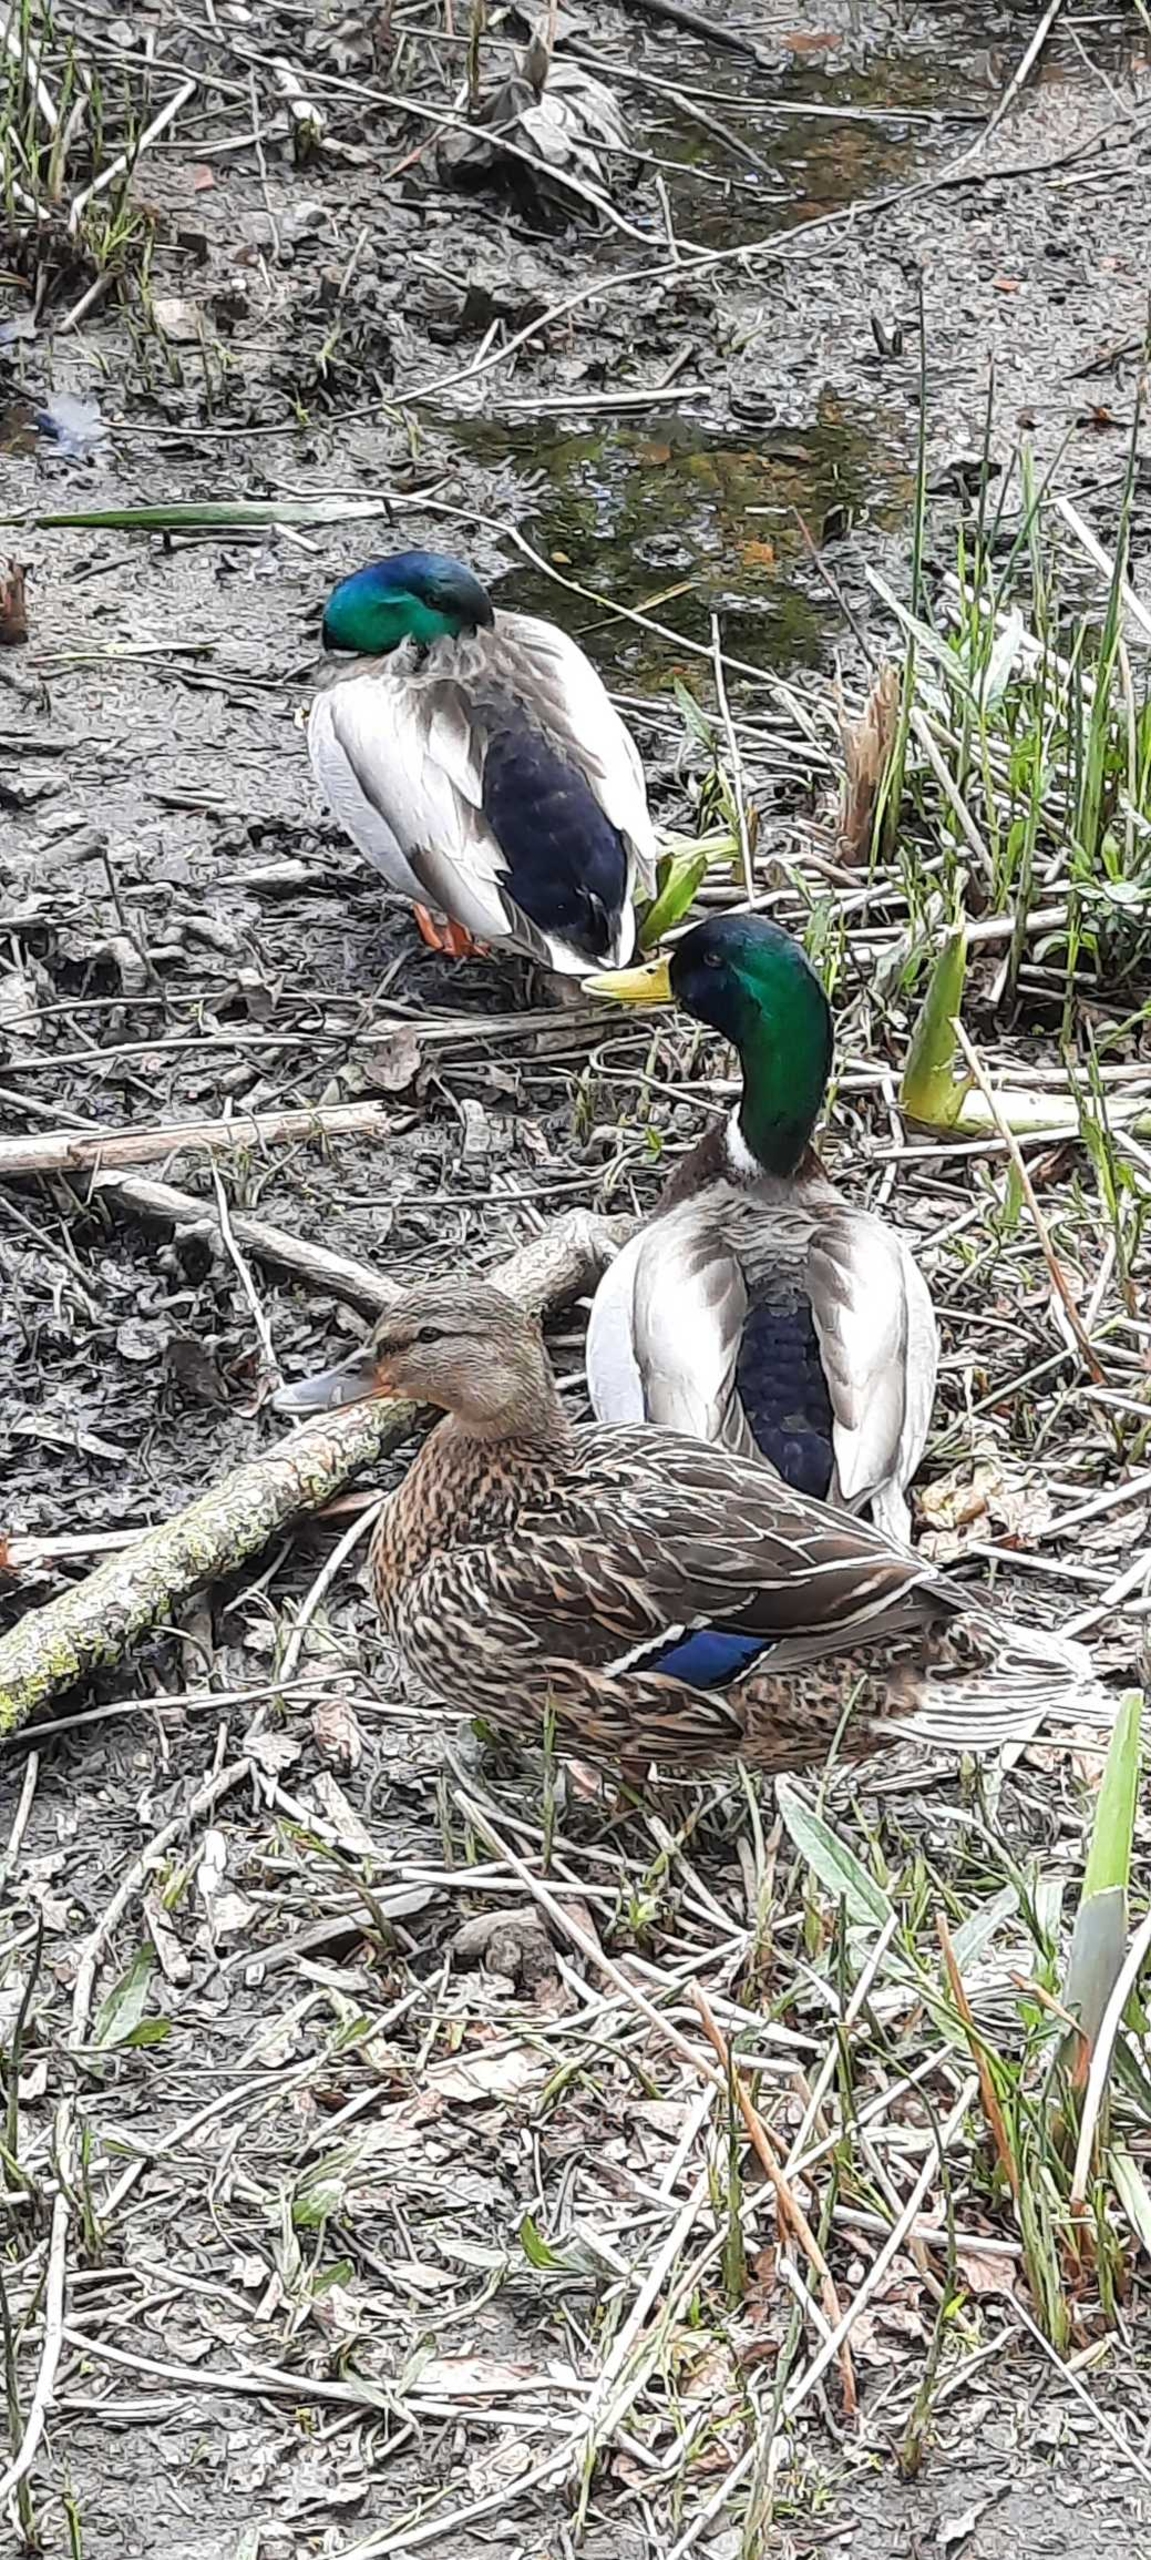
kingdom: Animalia
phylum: Chordata
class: Aves
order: Anseriformes
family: Anatidae
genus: Anas
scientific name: Anas platyrhynchos
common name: Gråand
